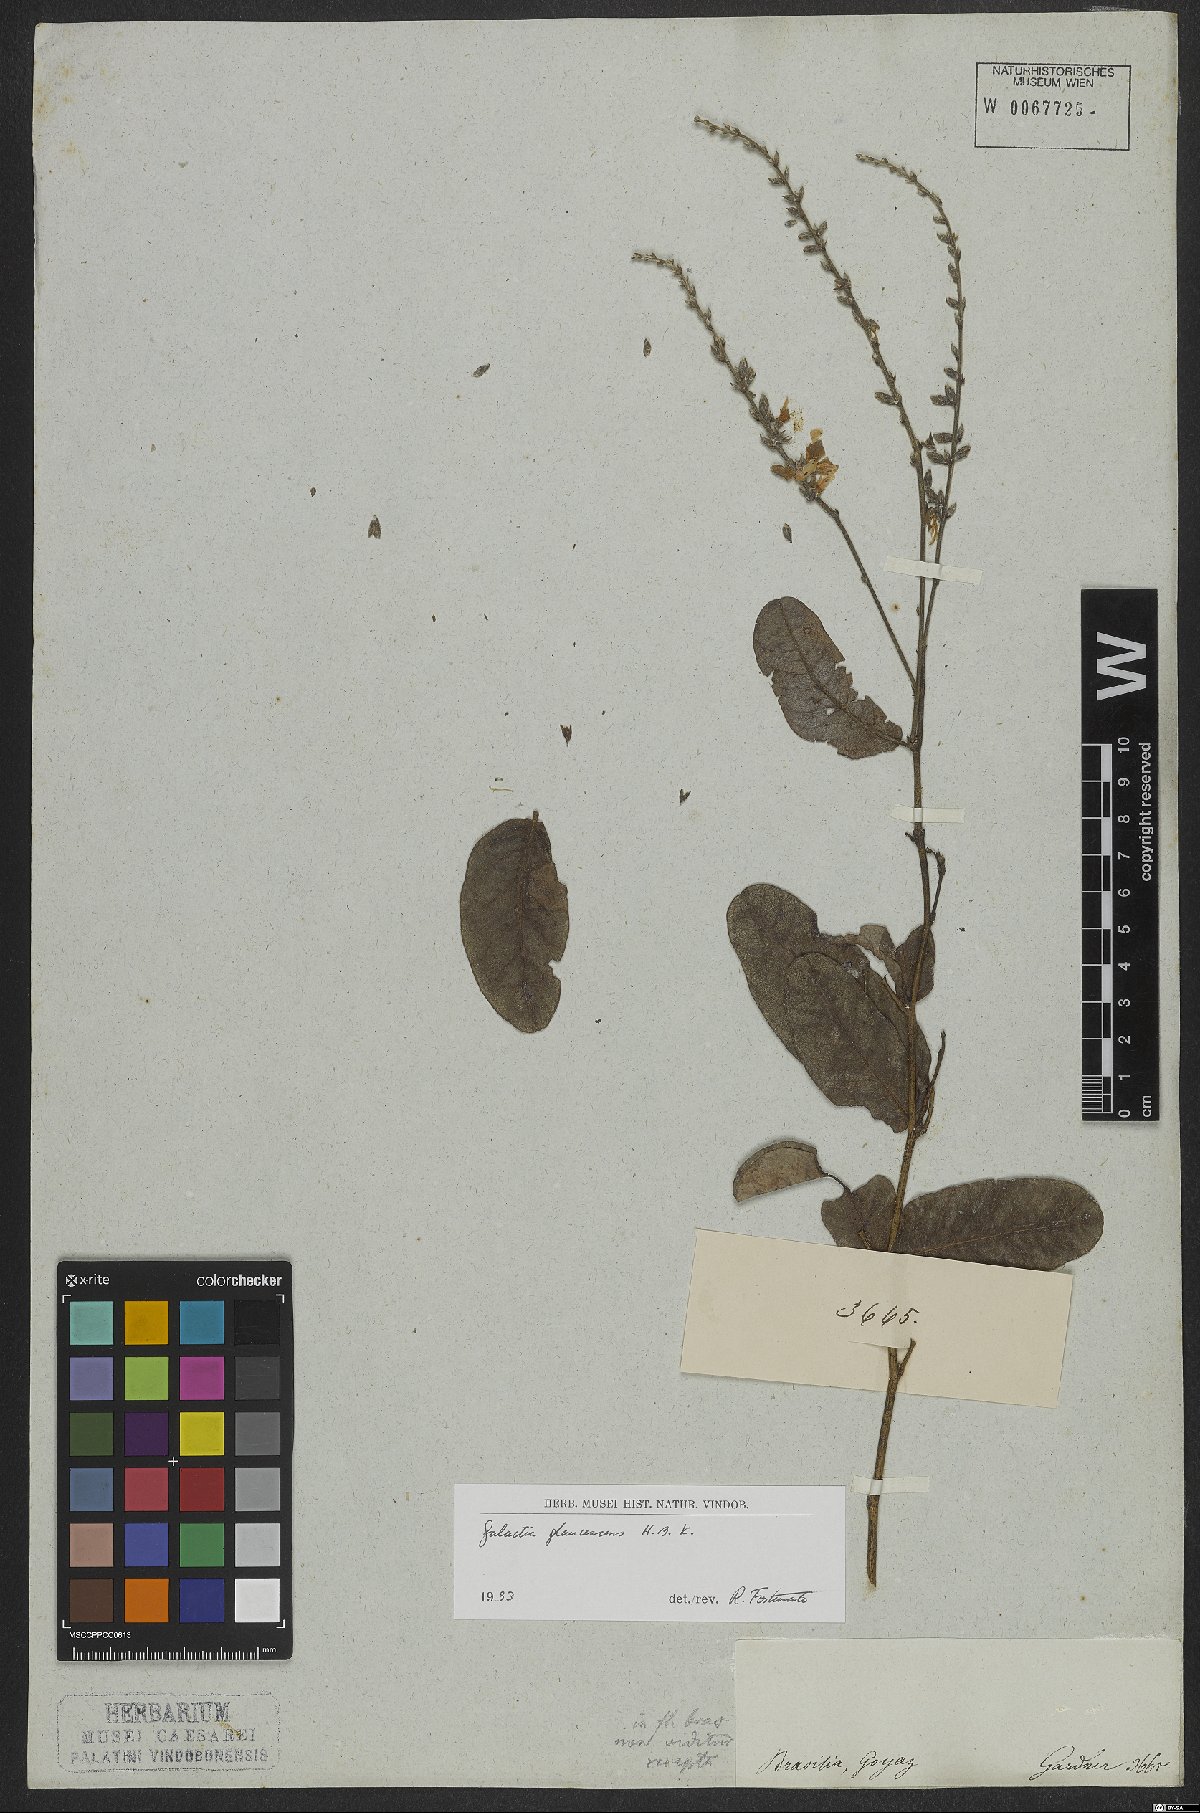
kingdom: Plantae
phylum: Tracheophyta
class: Magnoliopsida
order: Fabales
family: Fabaceae
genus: Galactia
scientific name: Galactia glaucescens
